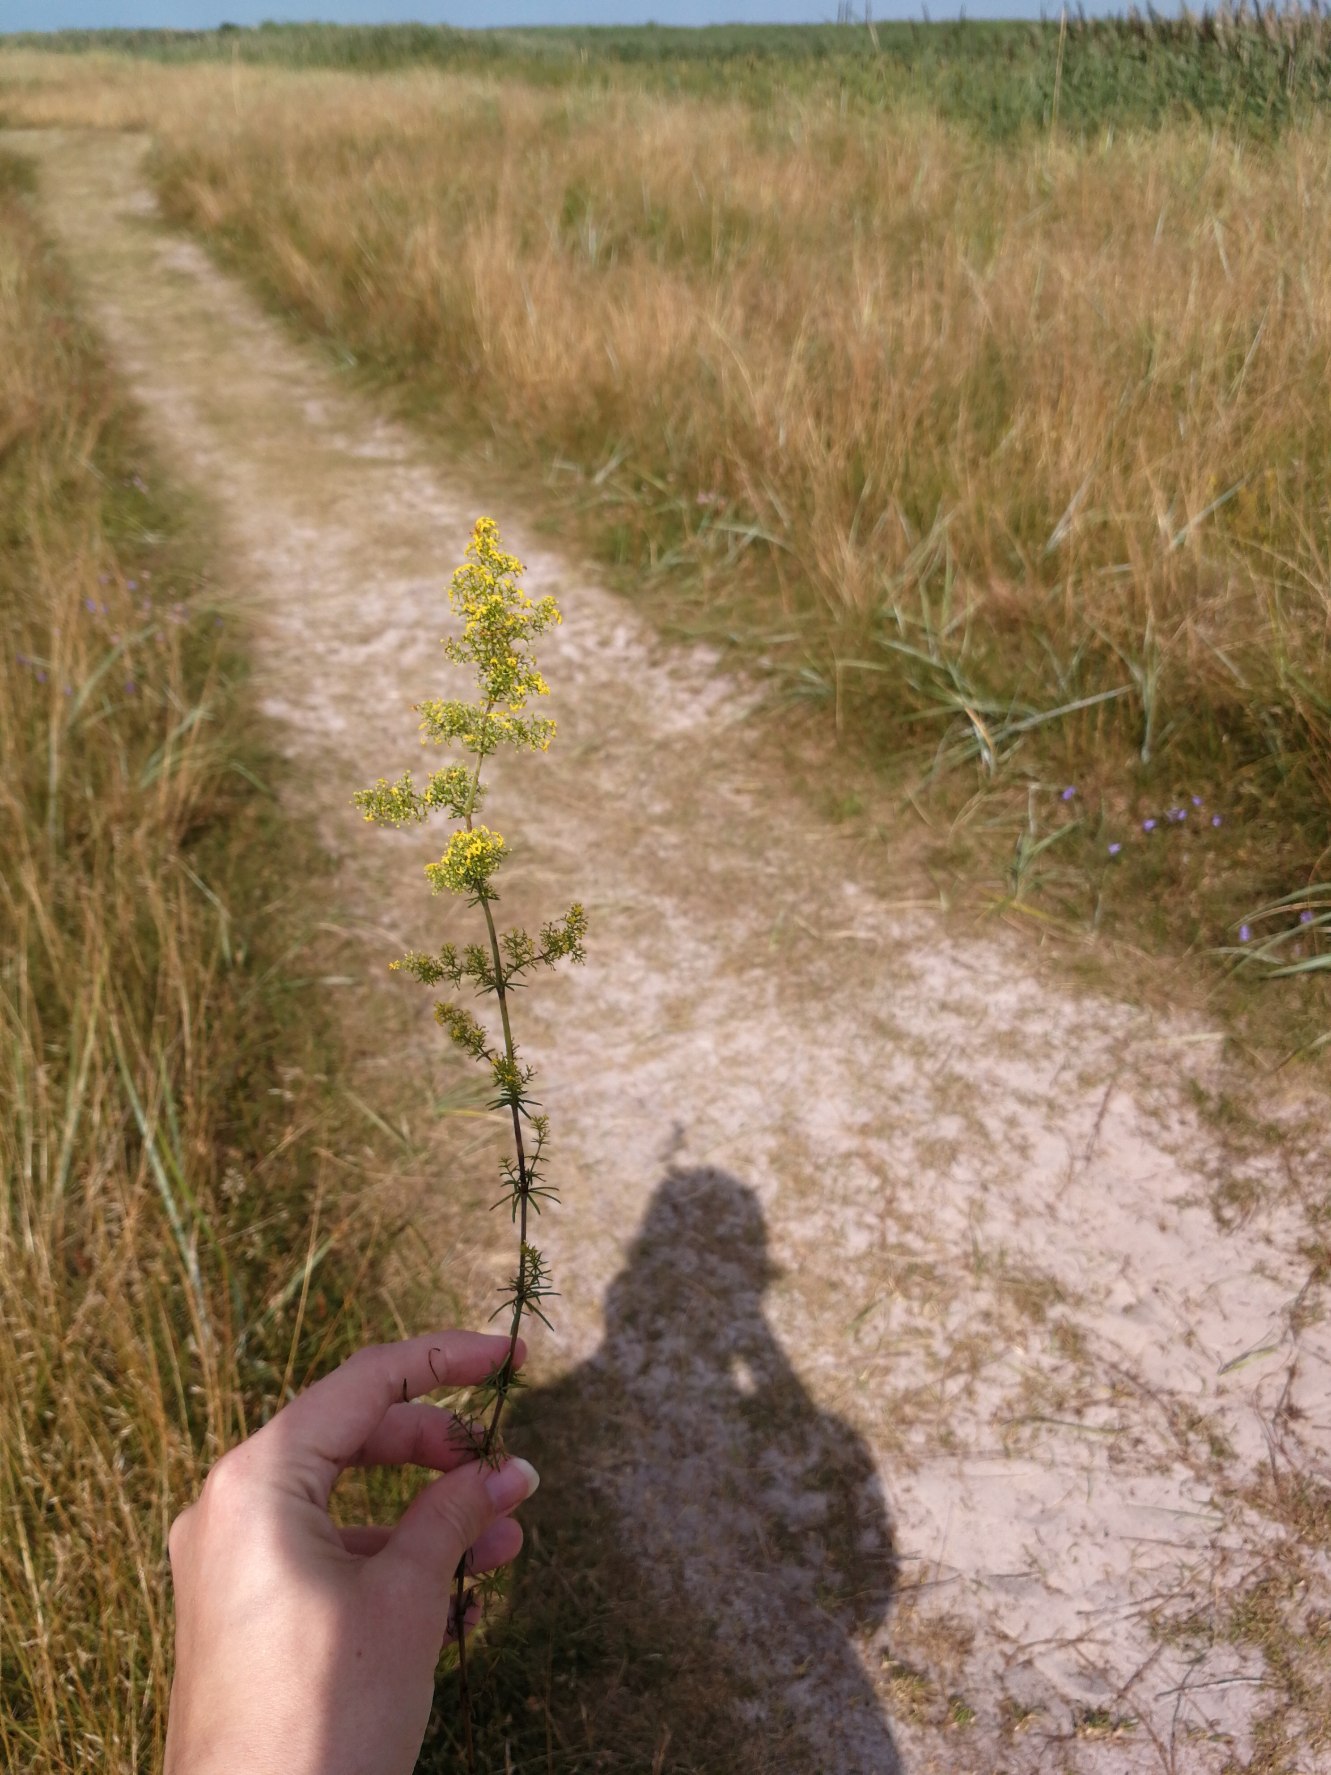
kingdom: Plantae
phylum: Tracheophyta
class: Magnoliopsida
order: Gentianales
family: Rubiaceae
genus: Galium
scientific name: Galium verum
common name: Gul snerre
